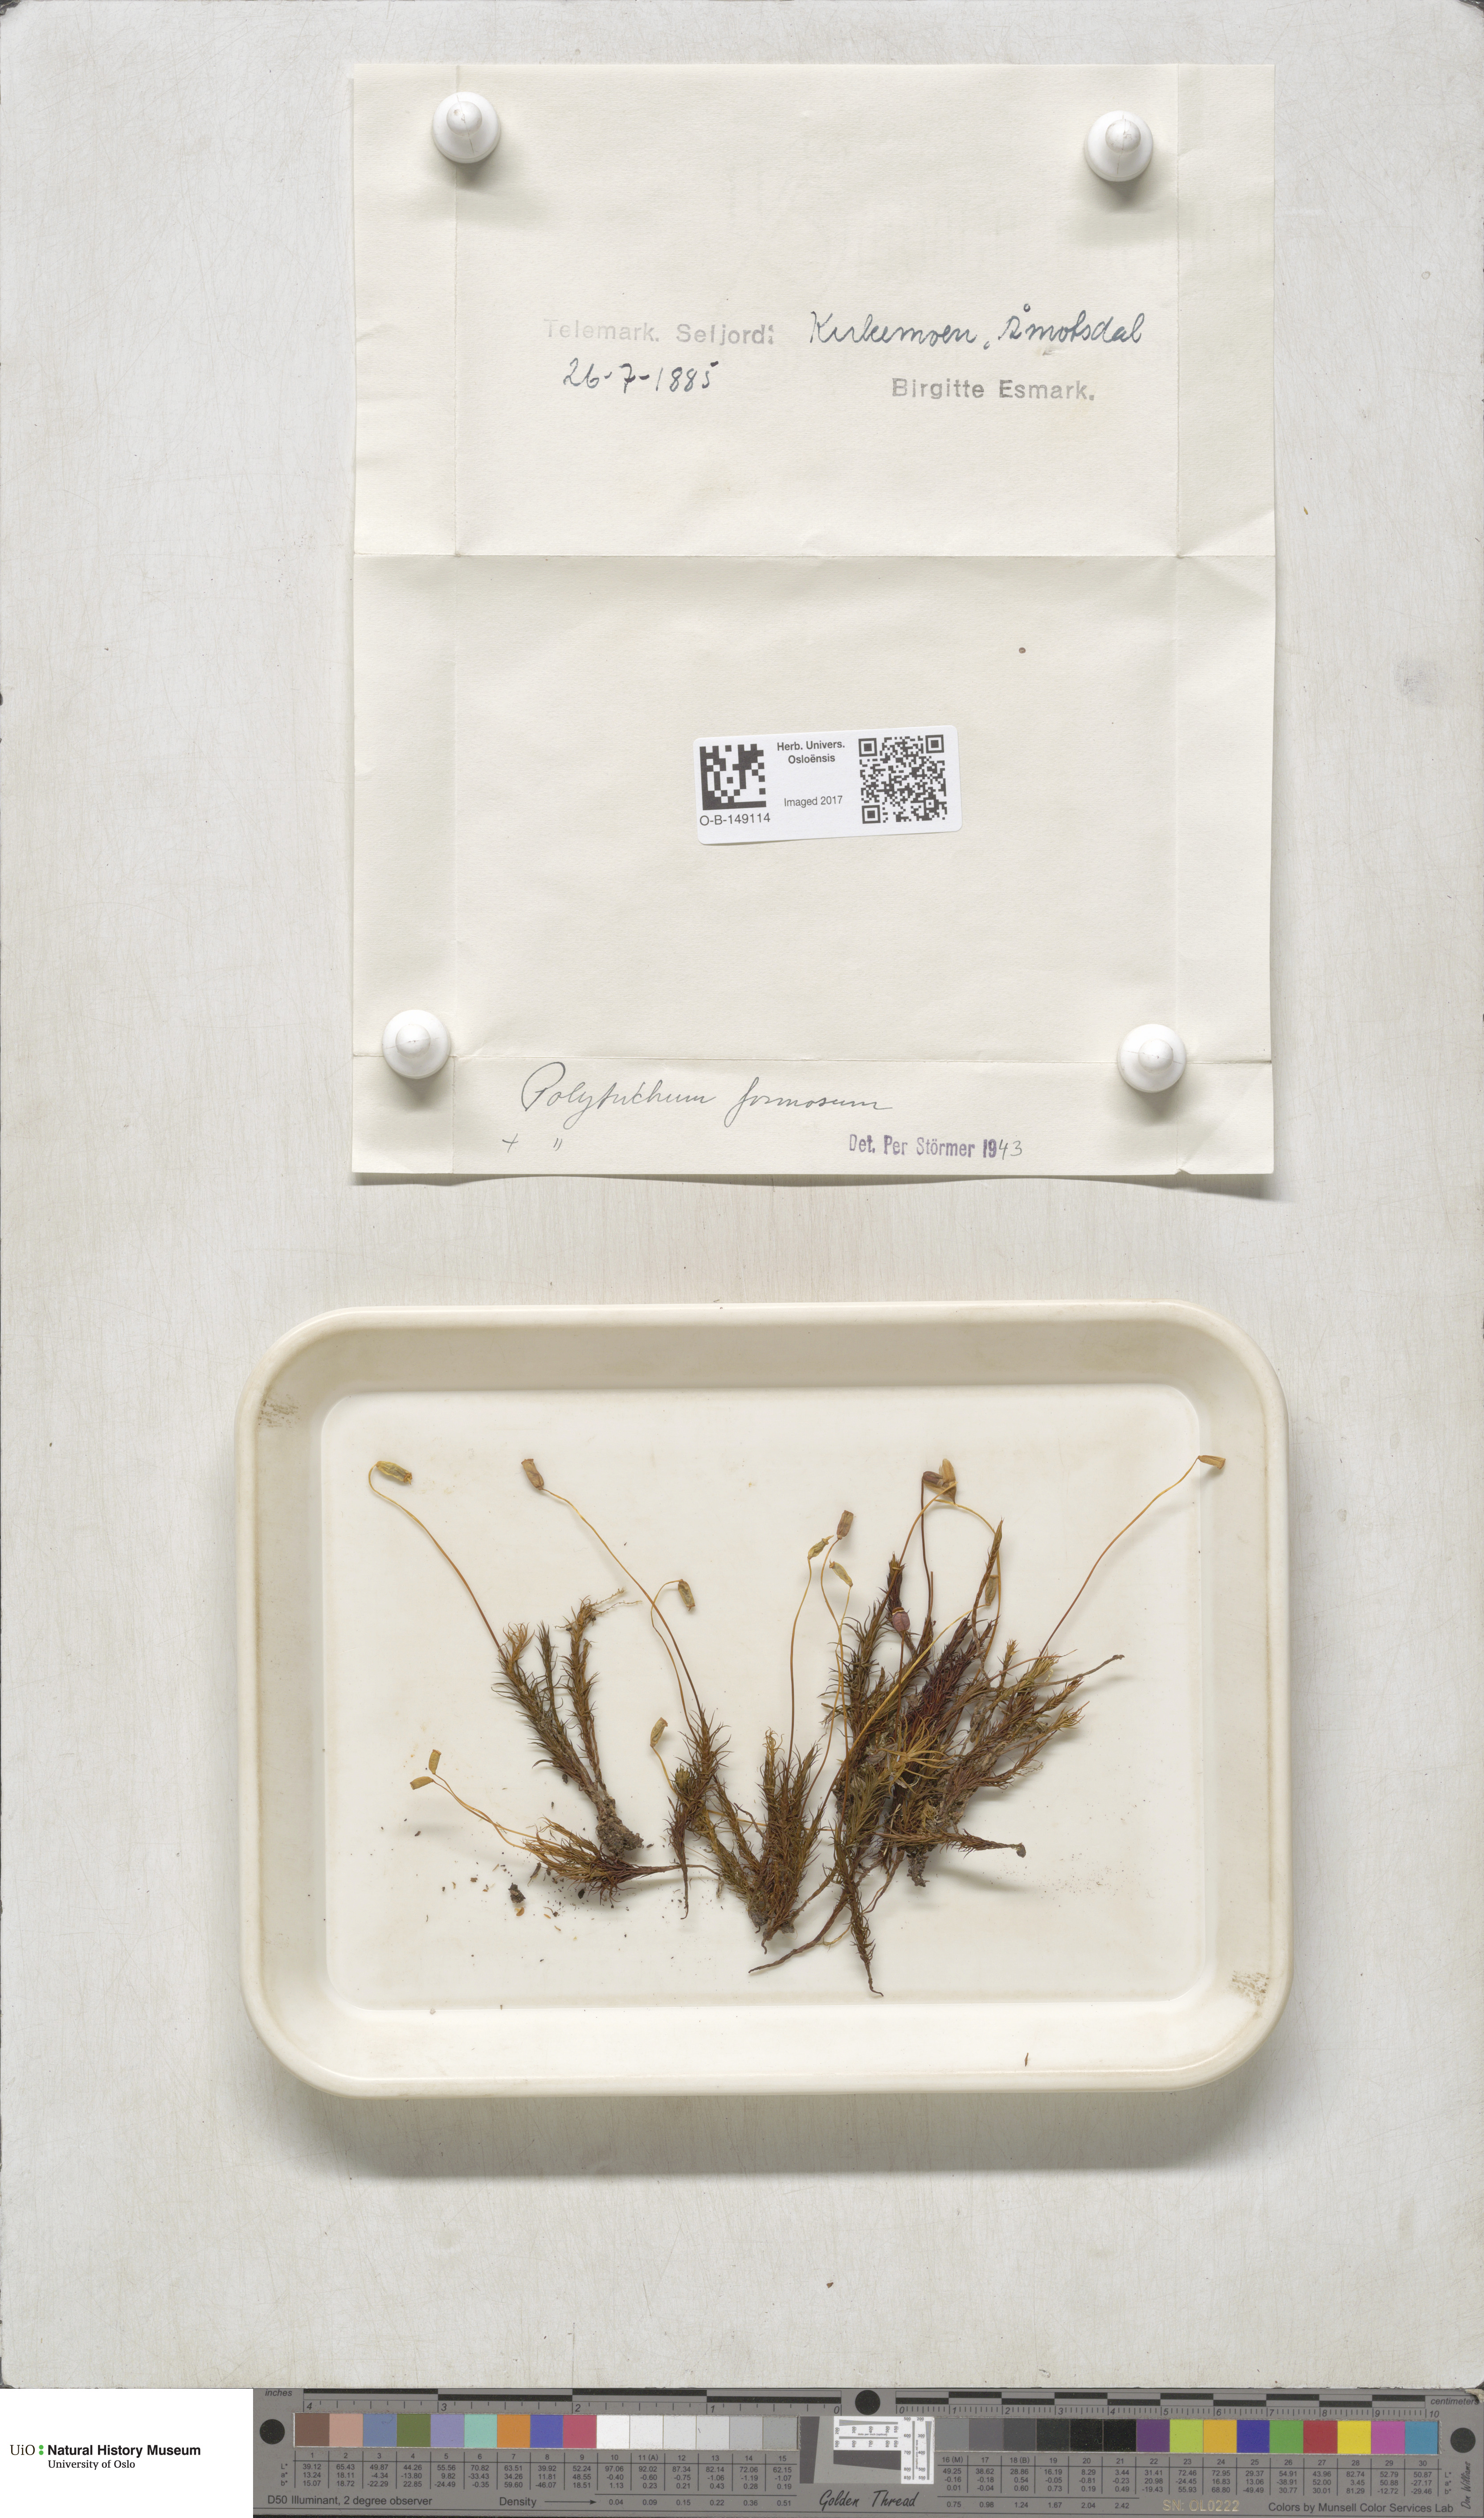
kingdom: Plantae
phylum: Bryophyta
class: Polytrichopsida
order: Polytrichales
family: Polytrichaceae
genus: Polytrichum
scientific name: Polytrichum formosum
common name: Bank haircap moss
